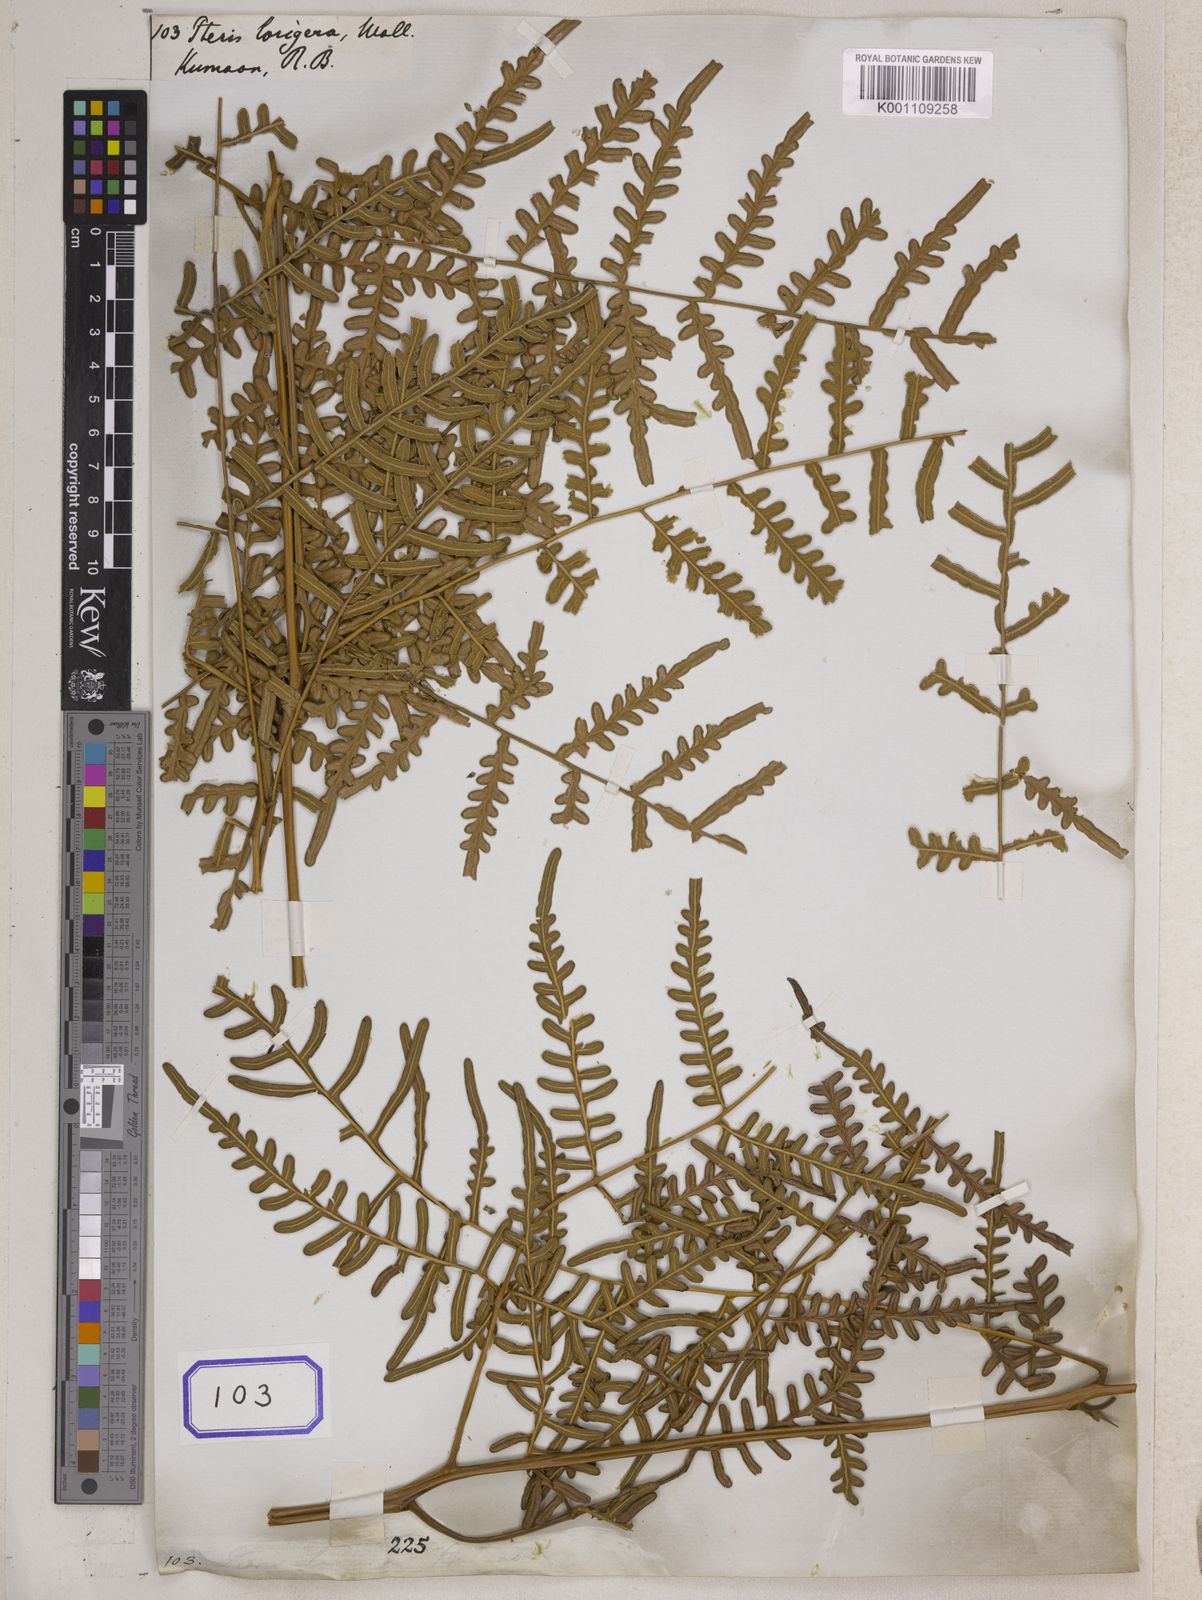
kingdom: Plantae
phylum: Tracheophyta
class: Polypodiopsida
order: Polypodiales
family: Dennstaedtiaceae
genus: Pteridium
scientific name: Pteridium rostratum
